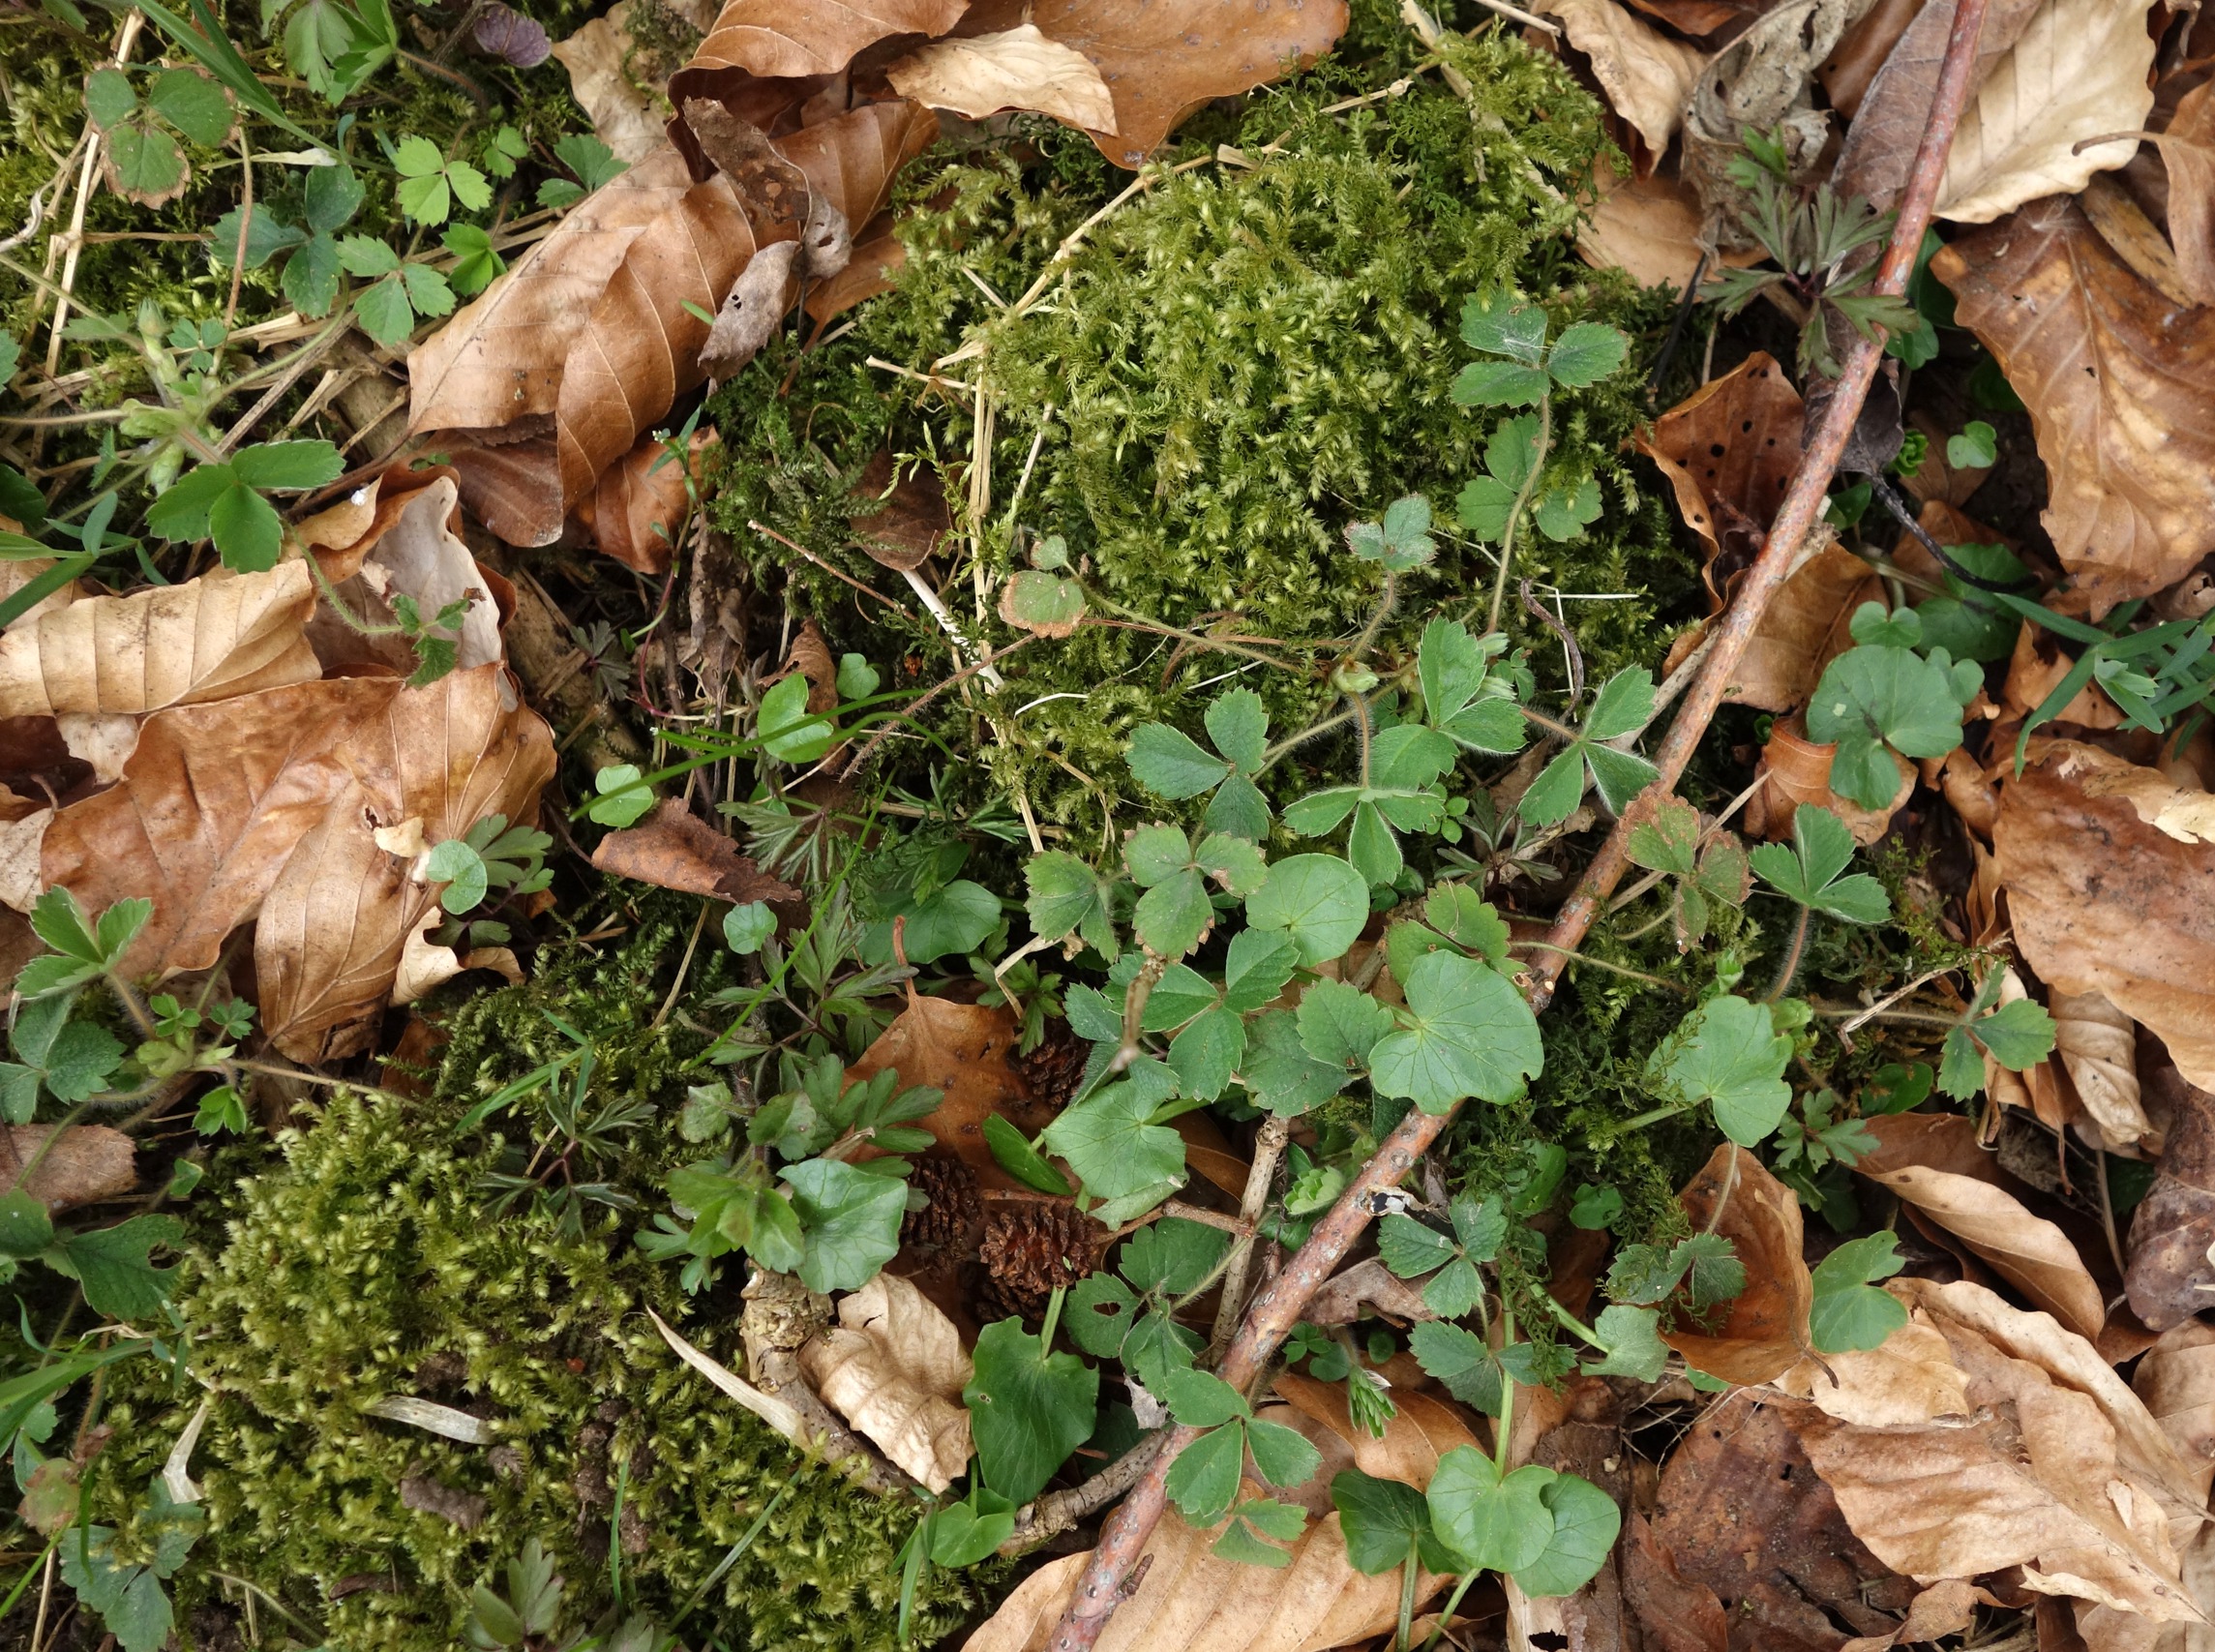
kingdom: Plantae
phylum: Tracheophyta
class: Magnoliopsida
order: Rosales
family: Rosaceae
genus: Potentilla
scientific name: Potentilla sterilis
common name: Jordbær-potentil
